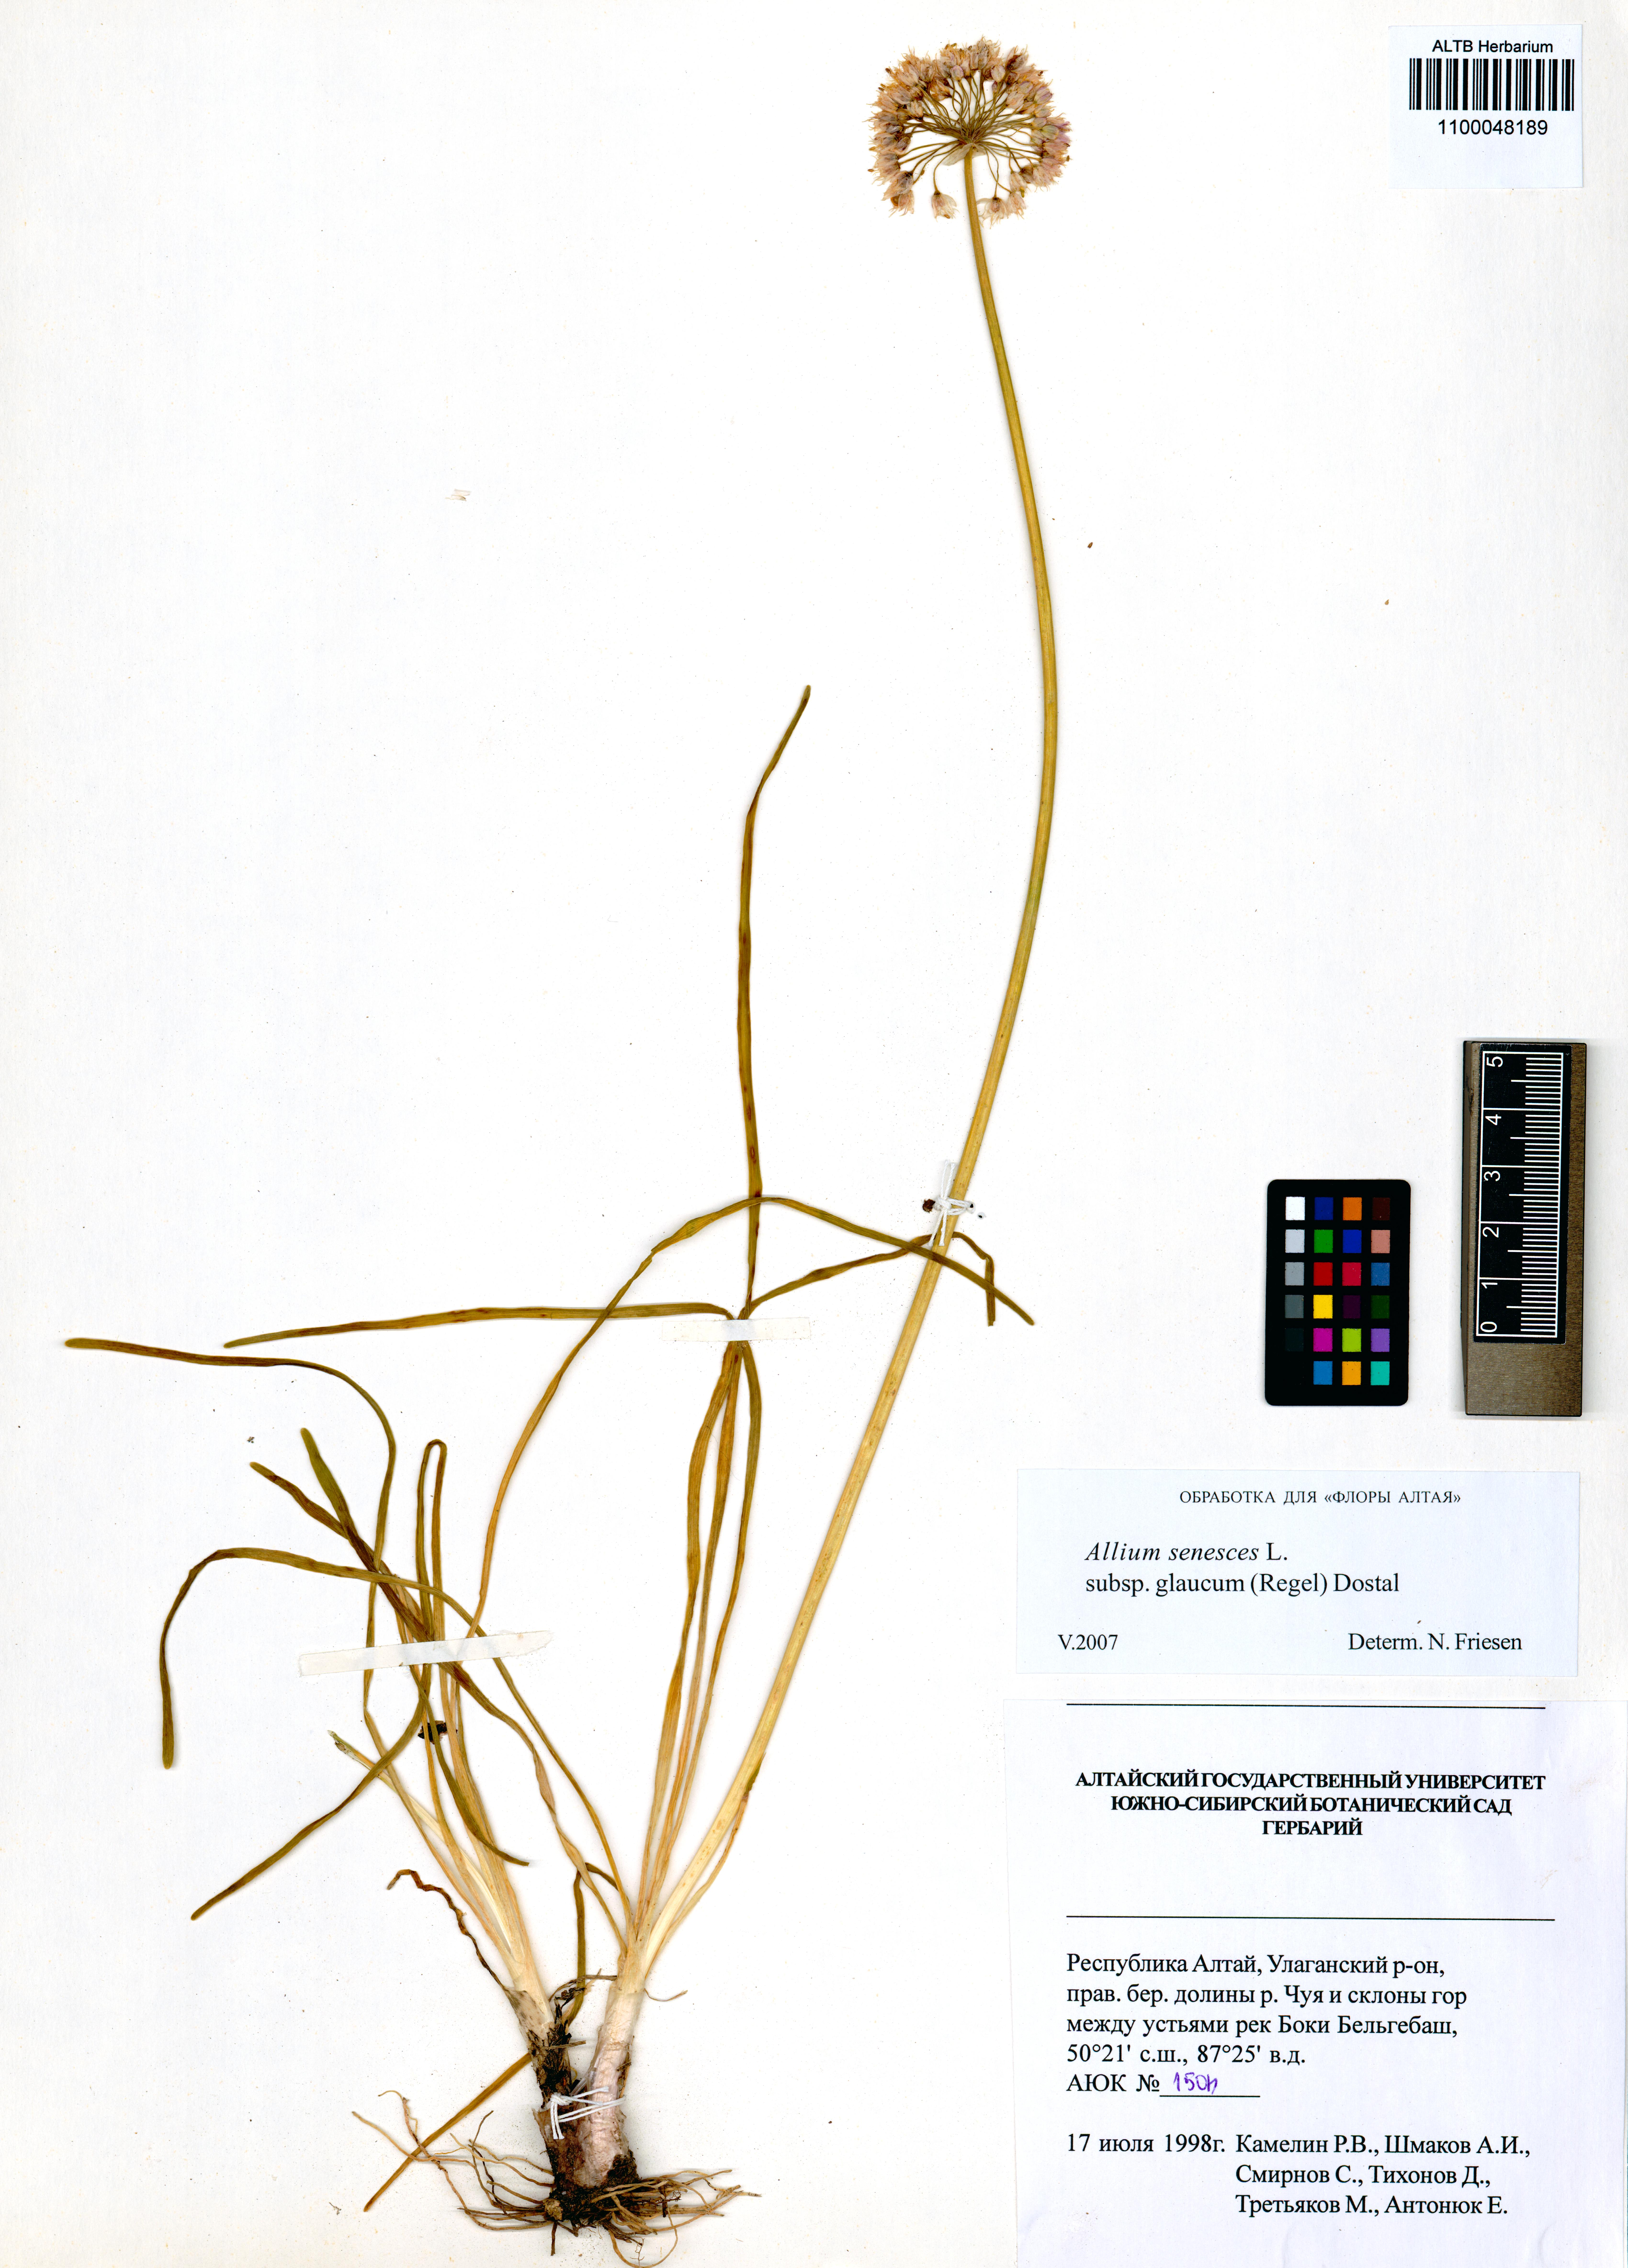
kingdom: Plantae
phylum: Tracheophyta
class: Liliopsida
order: Asparagales
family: Amaryllidaceae
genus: Allium
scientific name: Allium senescens
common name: German garlic
